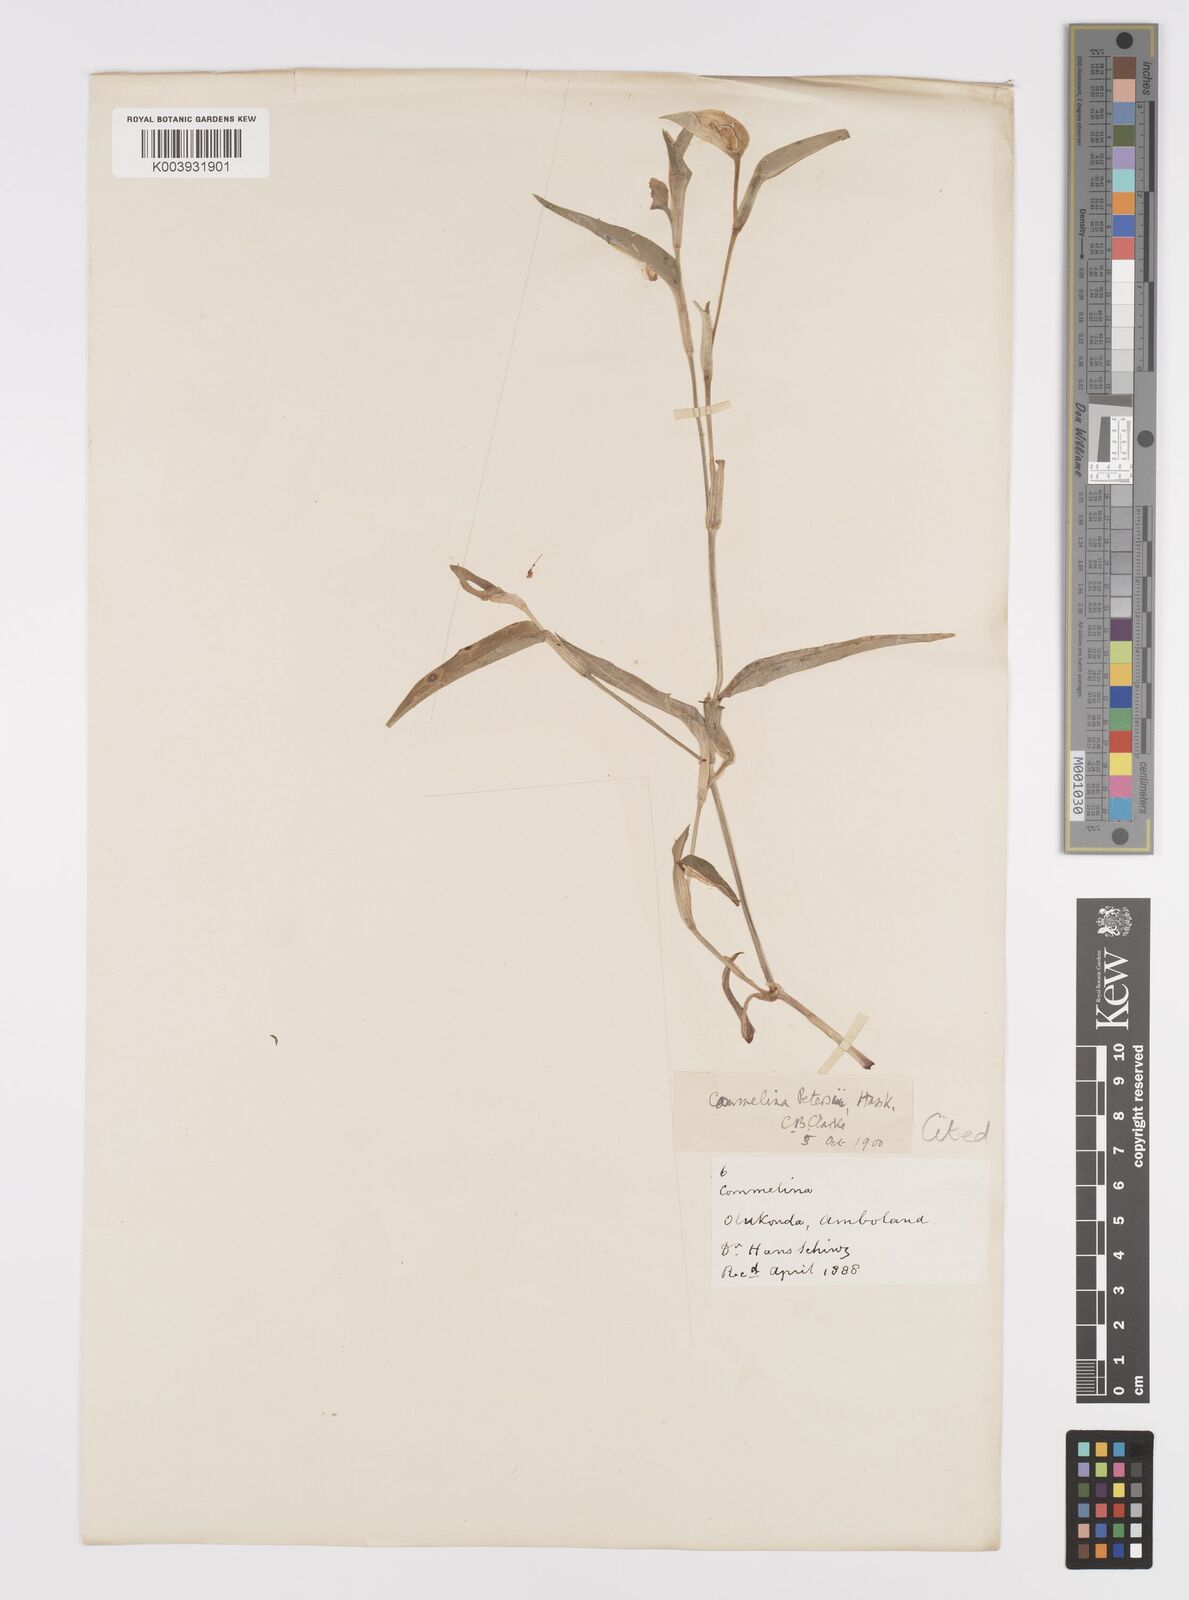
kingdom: Plantae
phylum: Tracheophyta
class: Liliopsida
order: Commelinales
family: Commelinaceae
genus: Commelina
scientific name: Commelina petersii
